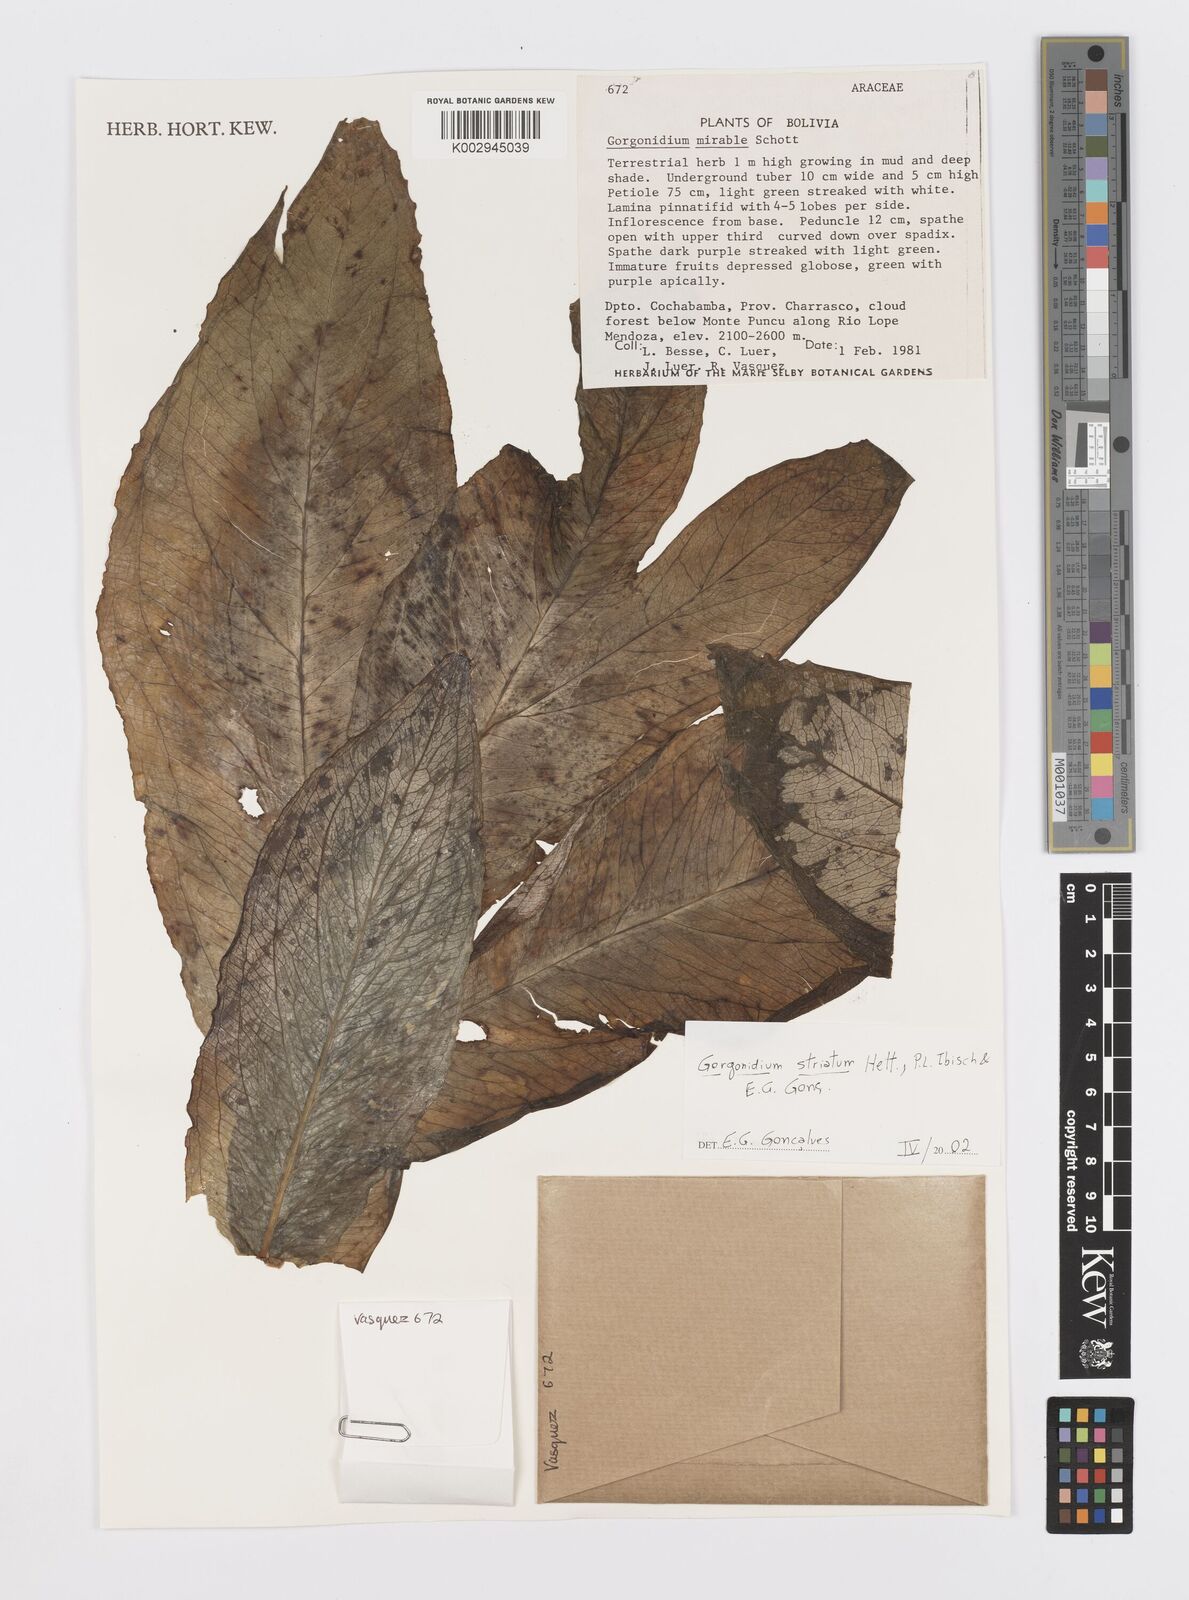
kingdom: Plantae
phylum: Tracheophyta
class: Liliopsida
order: Alismatales
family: Araceae
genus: Gorgonidium
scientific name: Gorgonidium striatum
